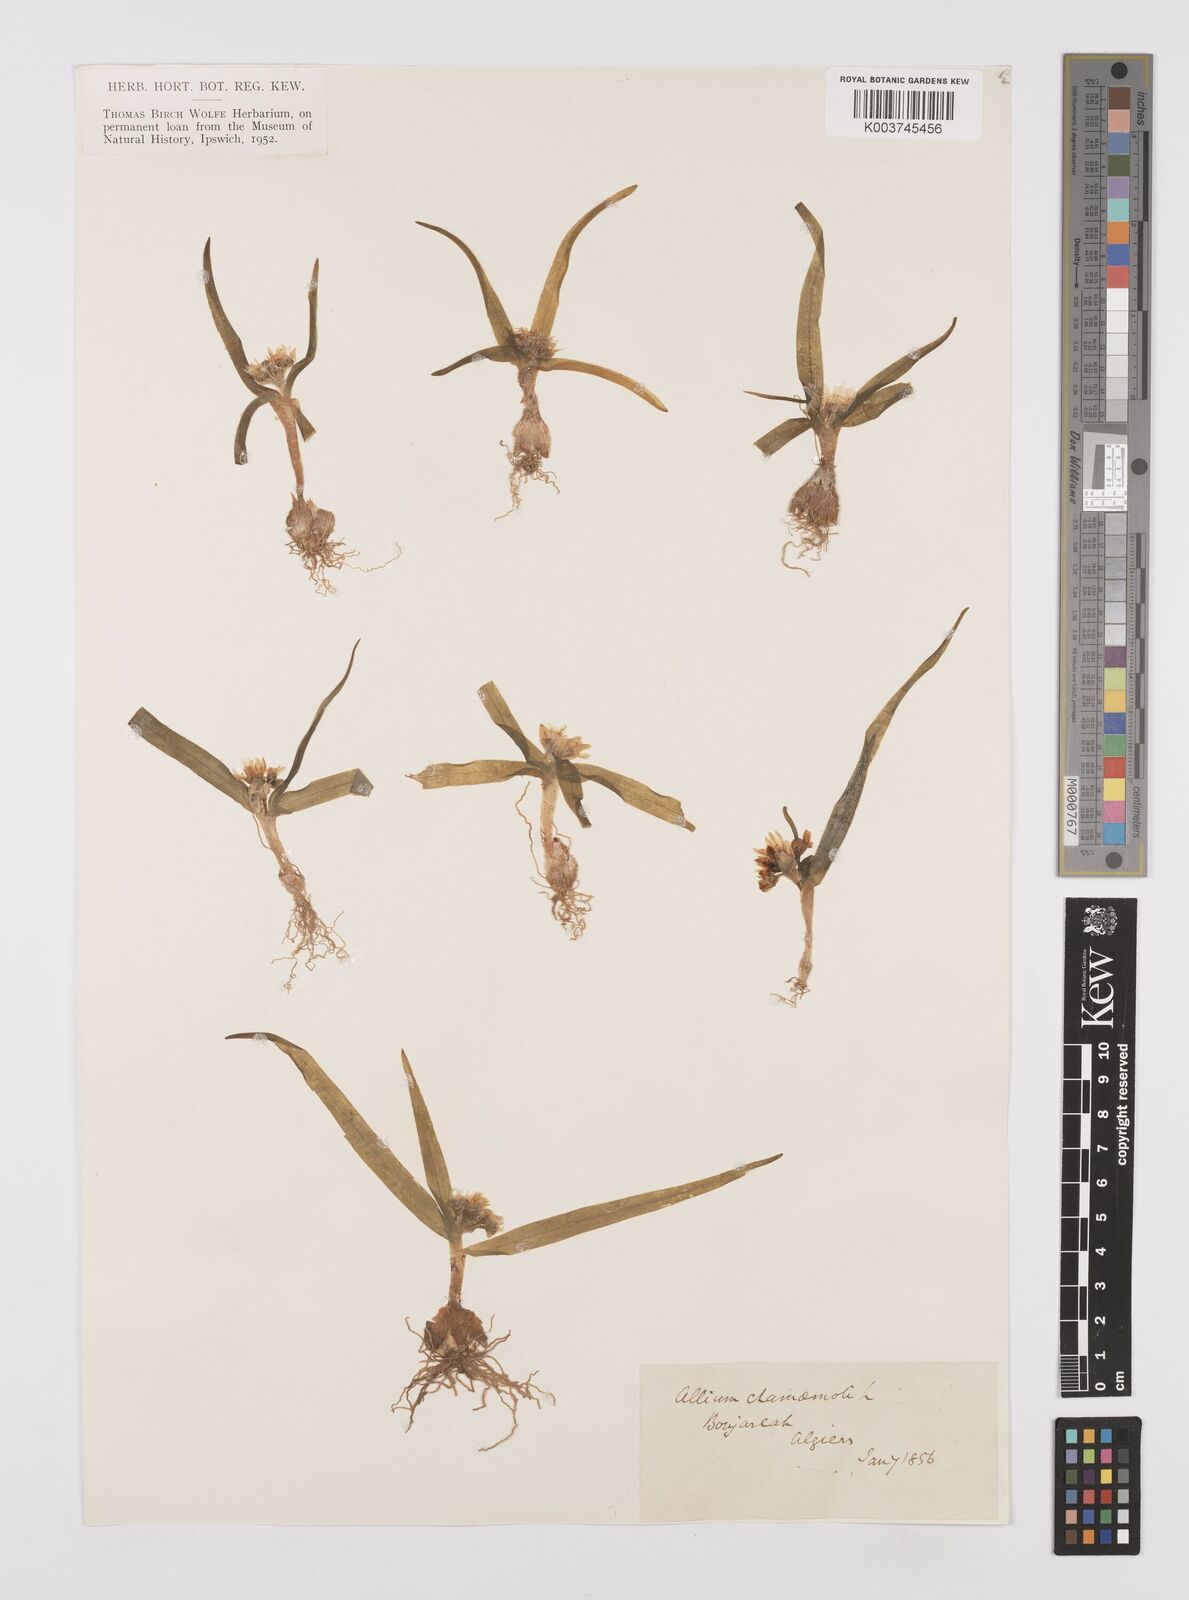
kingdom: Plantae
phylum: Tracheophyta
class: Liliopsida
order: Asparagales
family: Amaryllidaceae
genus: Allium
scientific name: Allium chamaemoly
